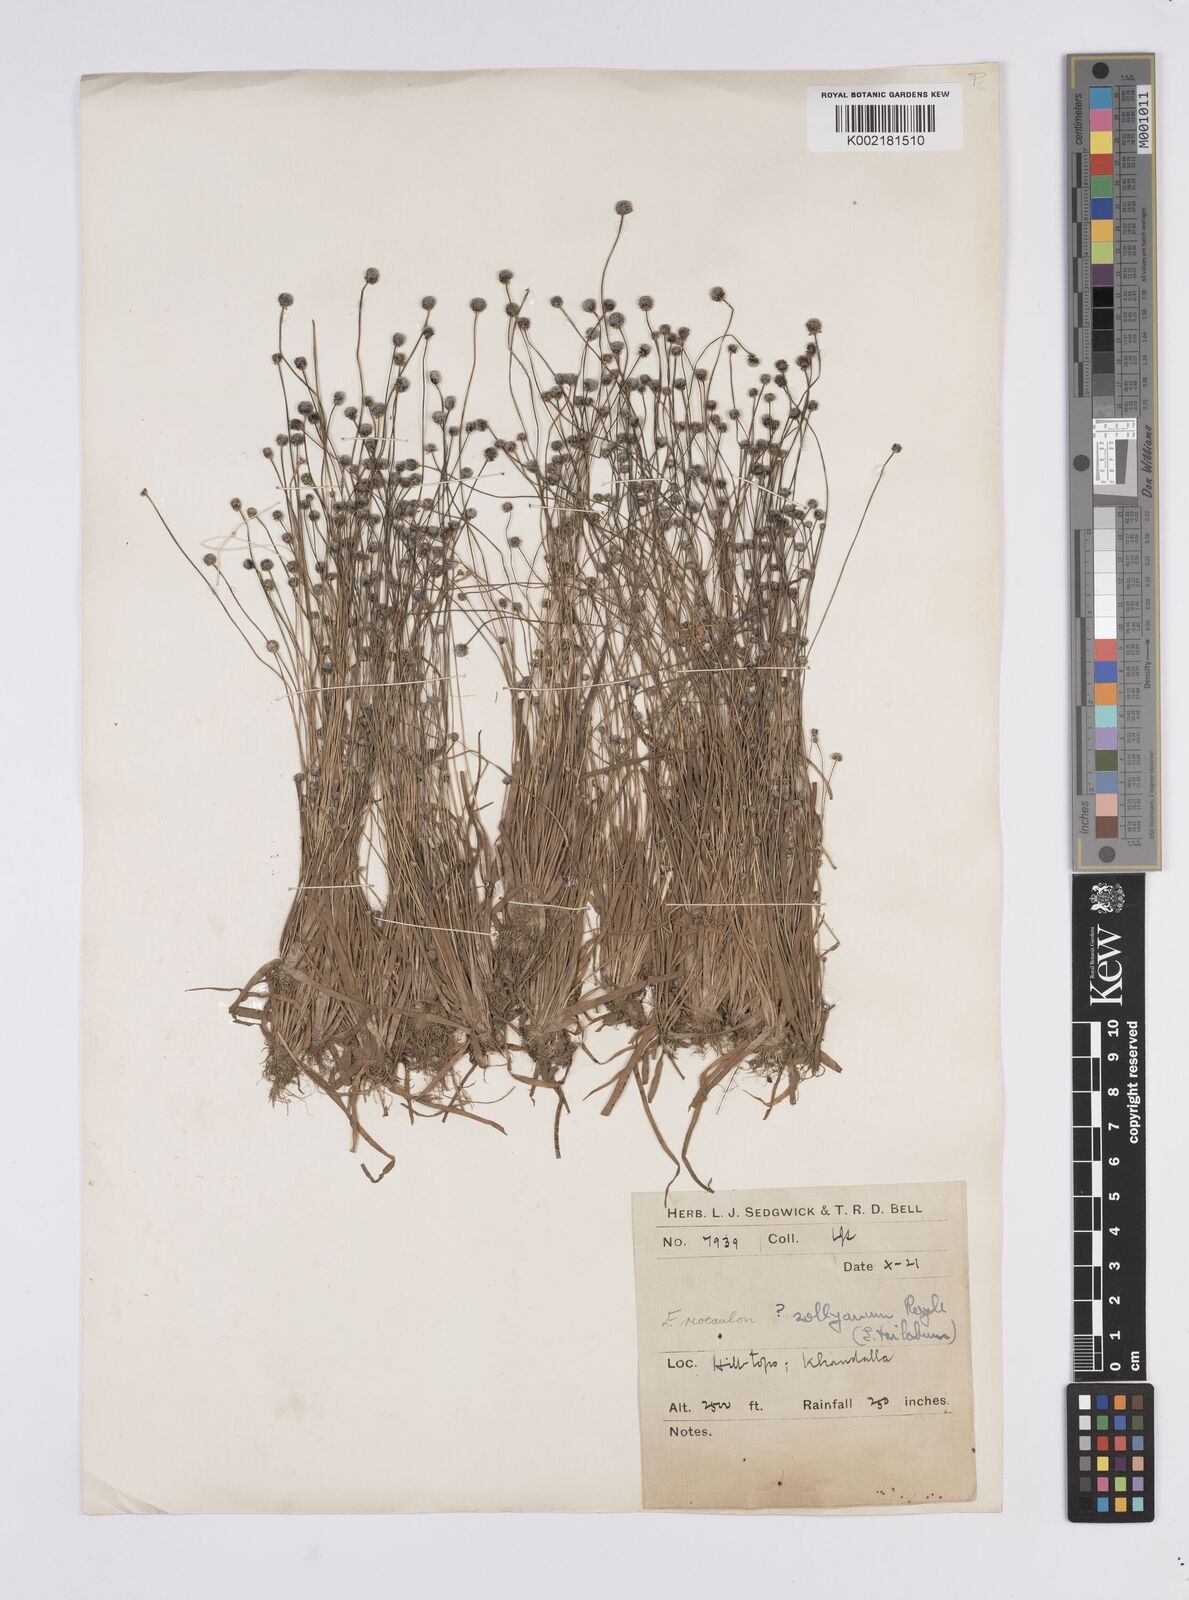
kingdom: Plantae
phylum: Tracheophyta
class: Liliopsida
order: Poales
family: Eriocaulaceae
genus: Eriocaulon
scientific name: Eriocaulon sollyanum
